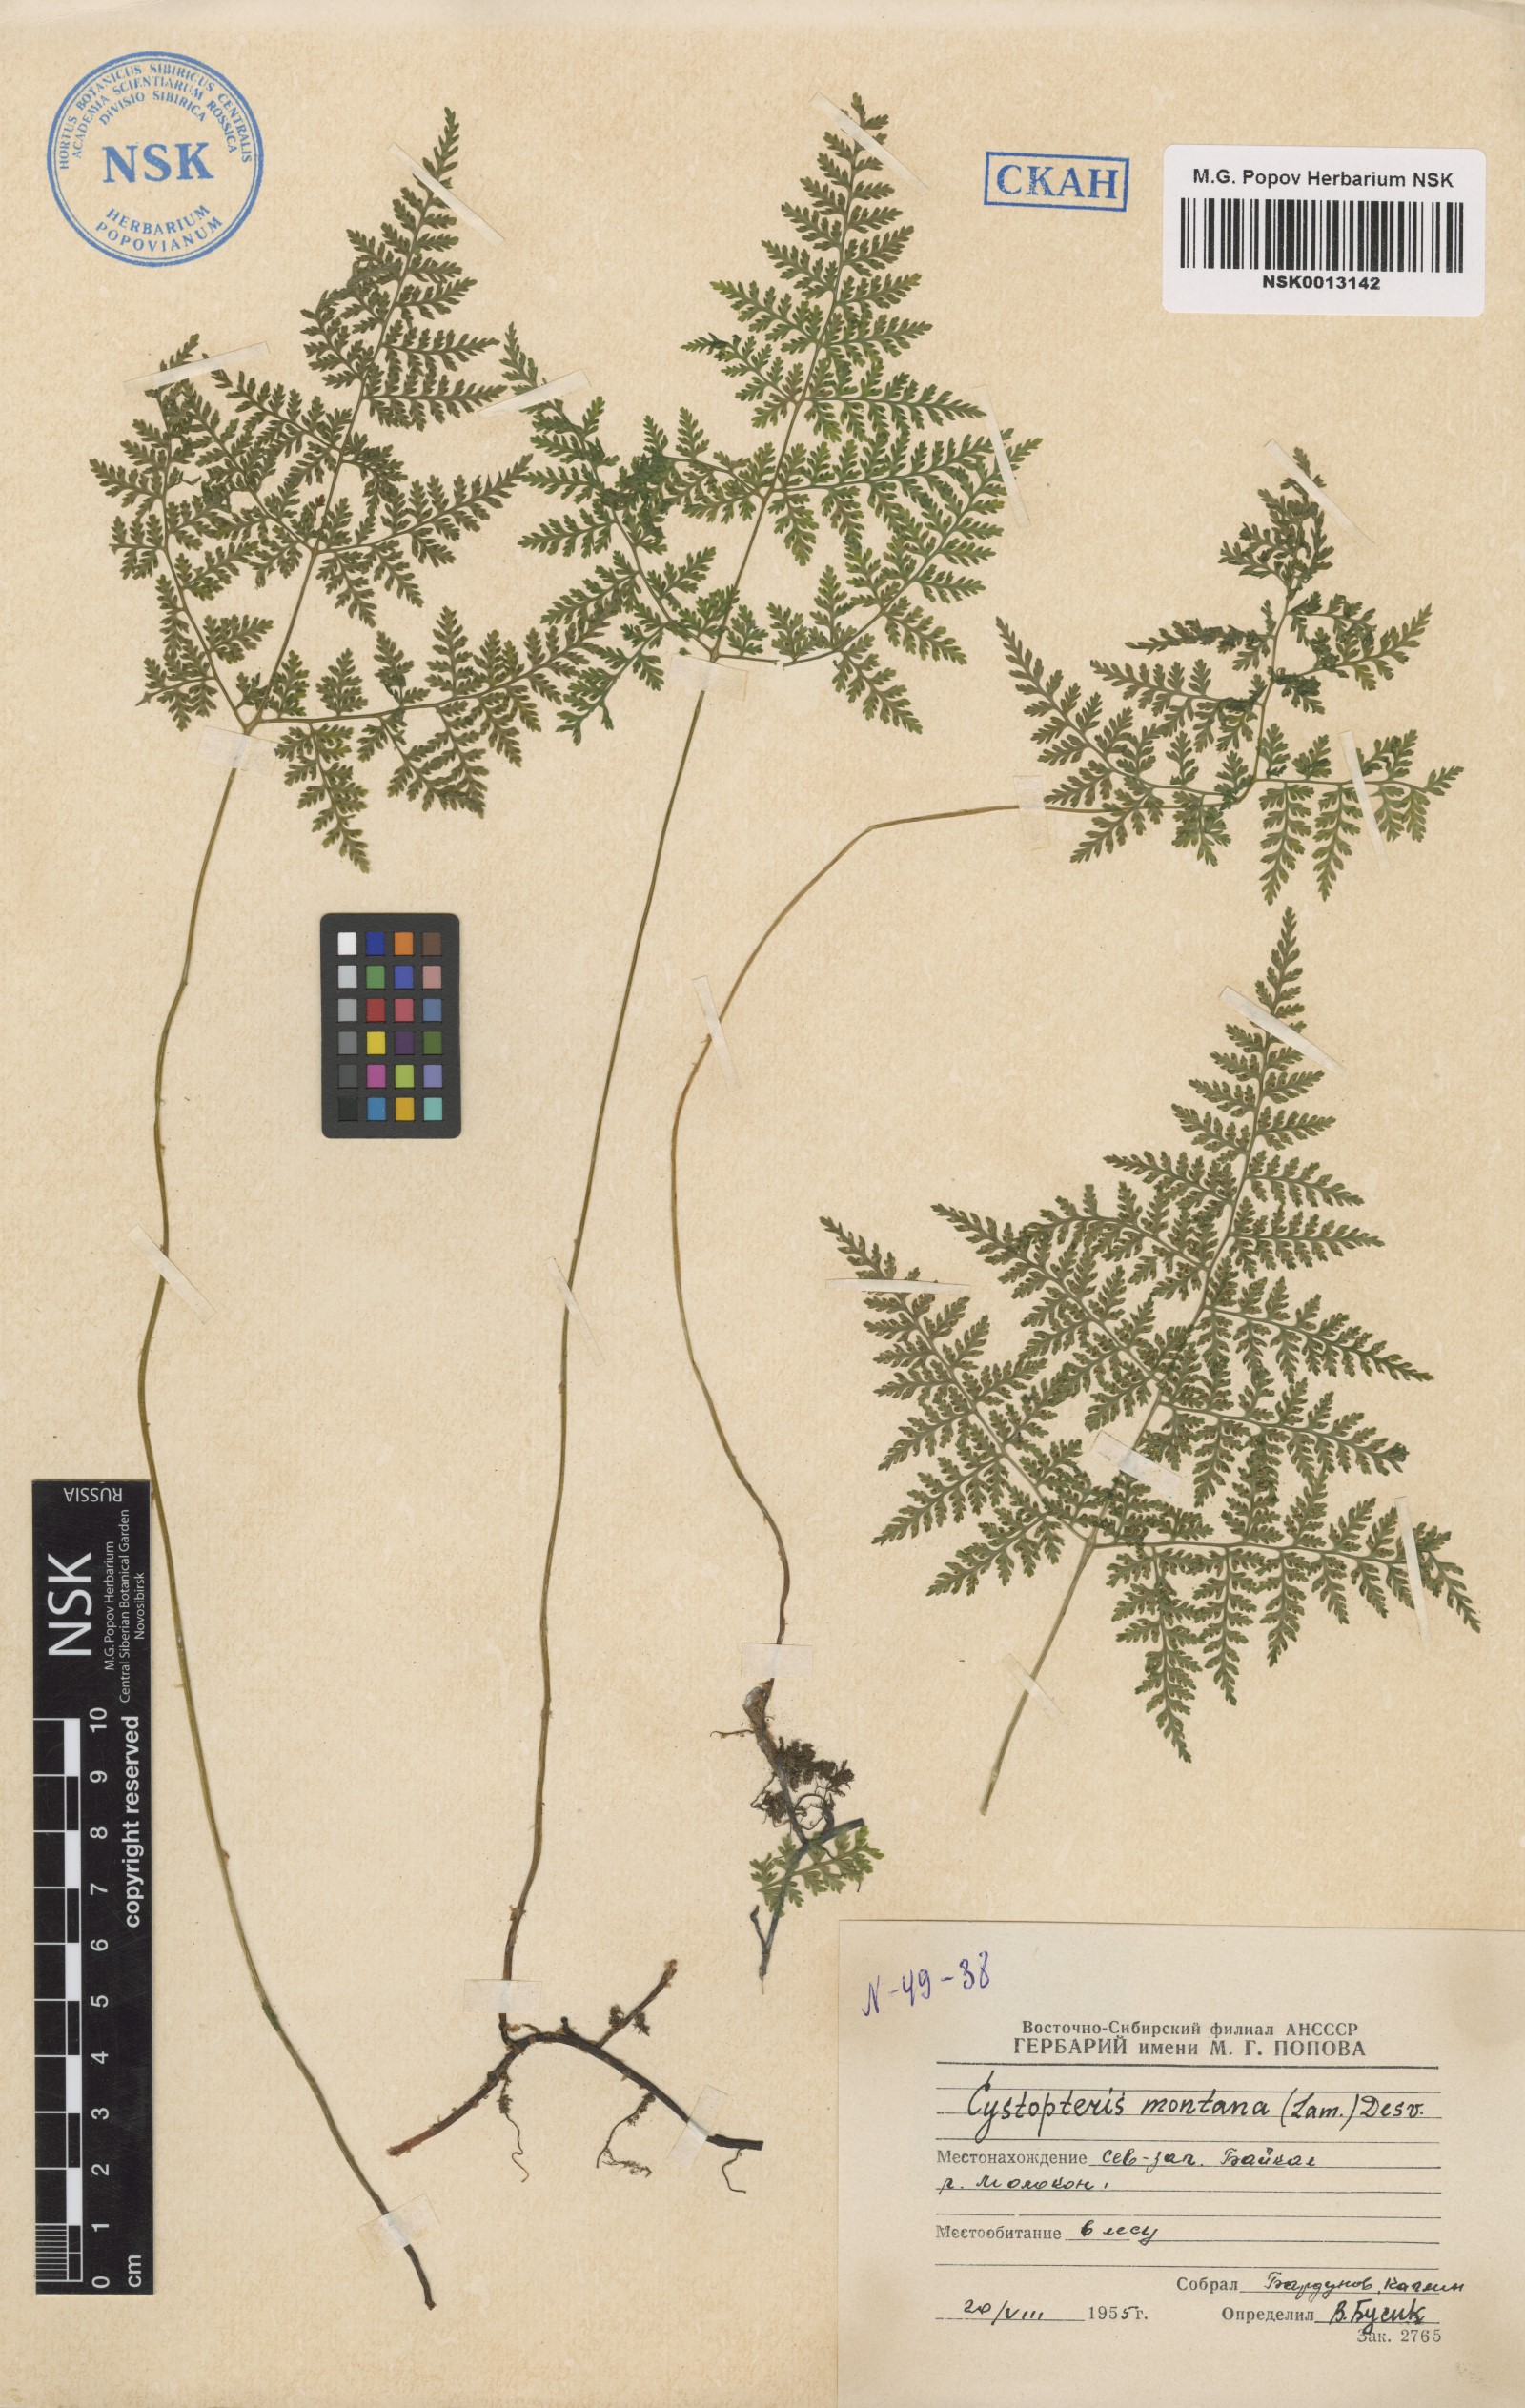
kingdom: Plantae
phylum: Tracheophyta
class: Polypodiopsida
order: Polypodiales
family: Cystopteridaceae
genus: Cystopteris
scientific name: Cystopteris montana
